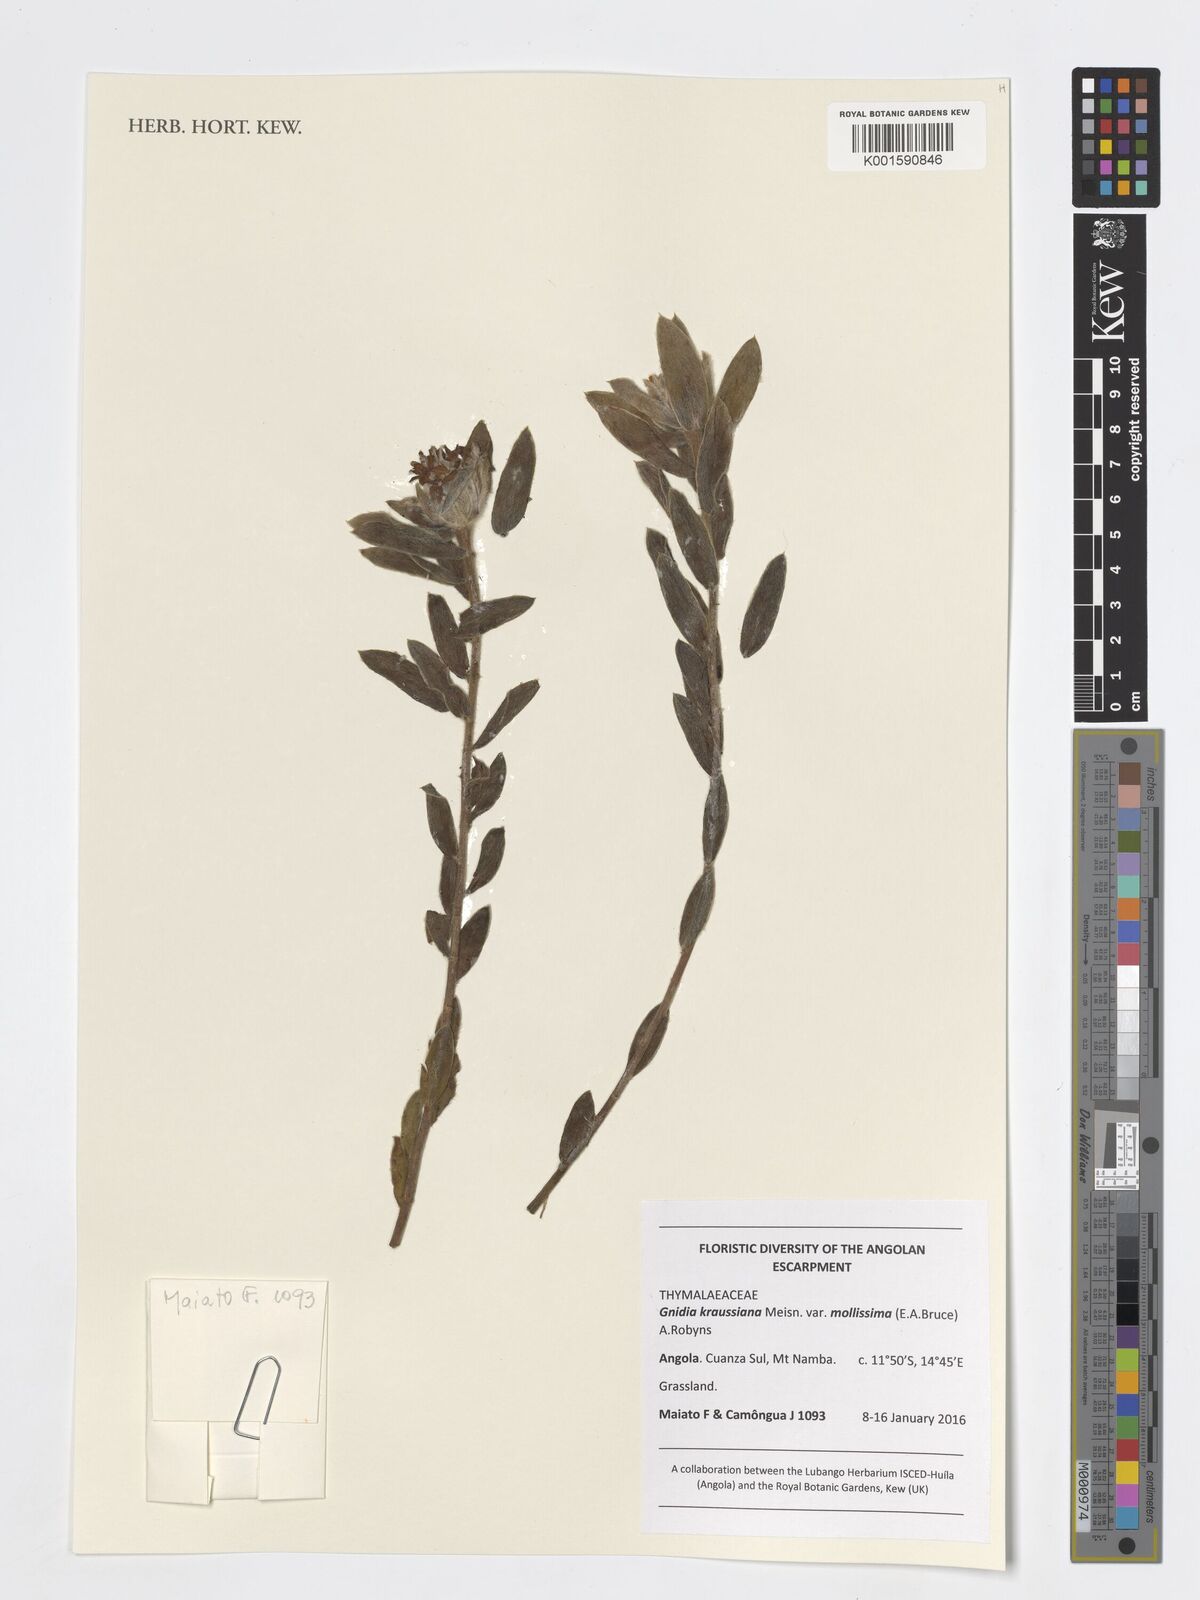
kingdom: Plantae
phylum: Tracheophyta
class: Magnoliopsida
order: Malvales
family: Thymelaeaceae
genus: Gnidia
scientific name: Gnidia kraussiana
